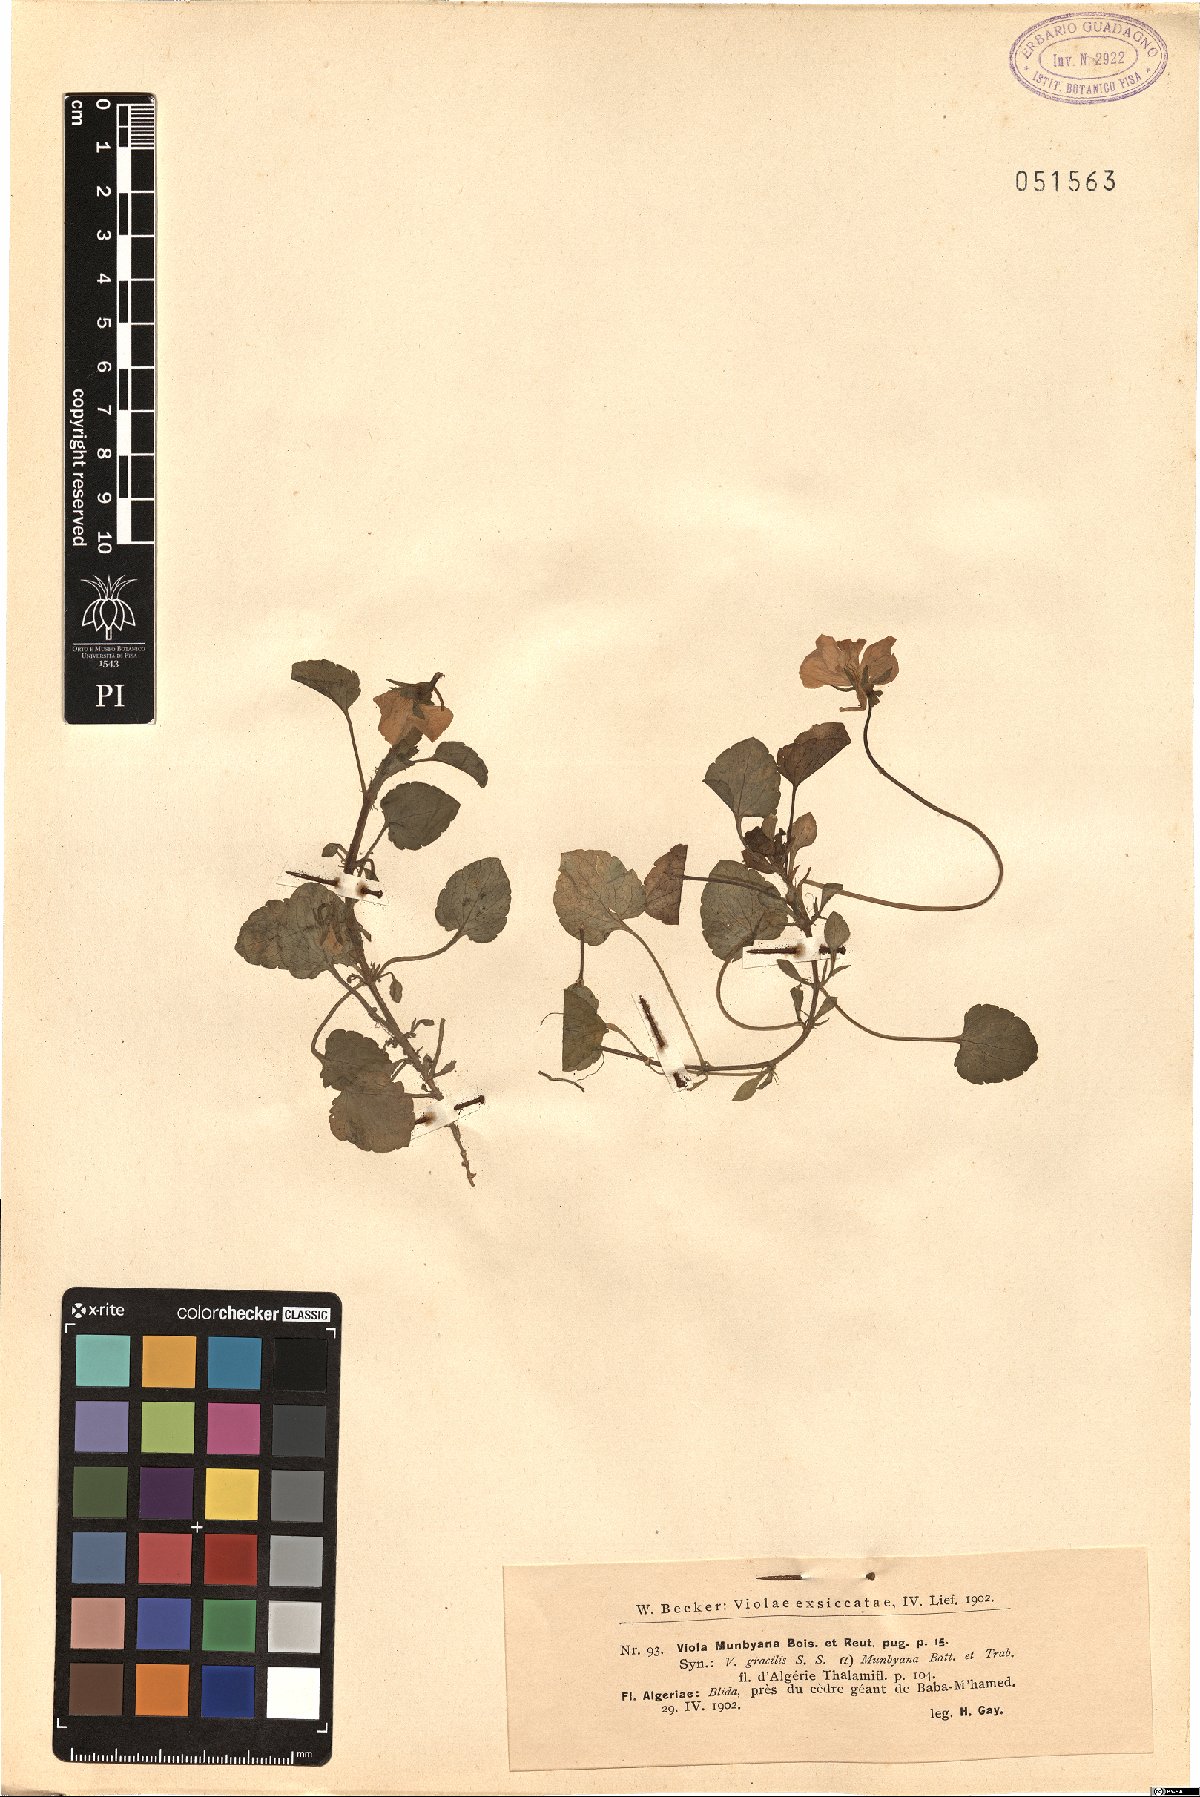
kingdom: Plantae
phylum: Tracheophyta
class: Magnoliopsida
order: Malpighiales
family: Violaceae
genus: Viola
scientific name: Viola munbyana
